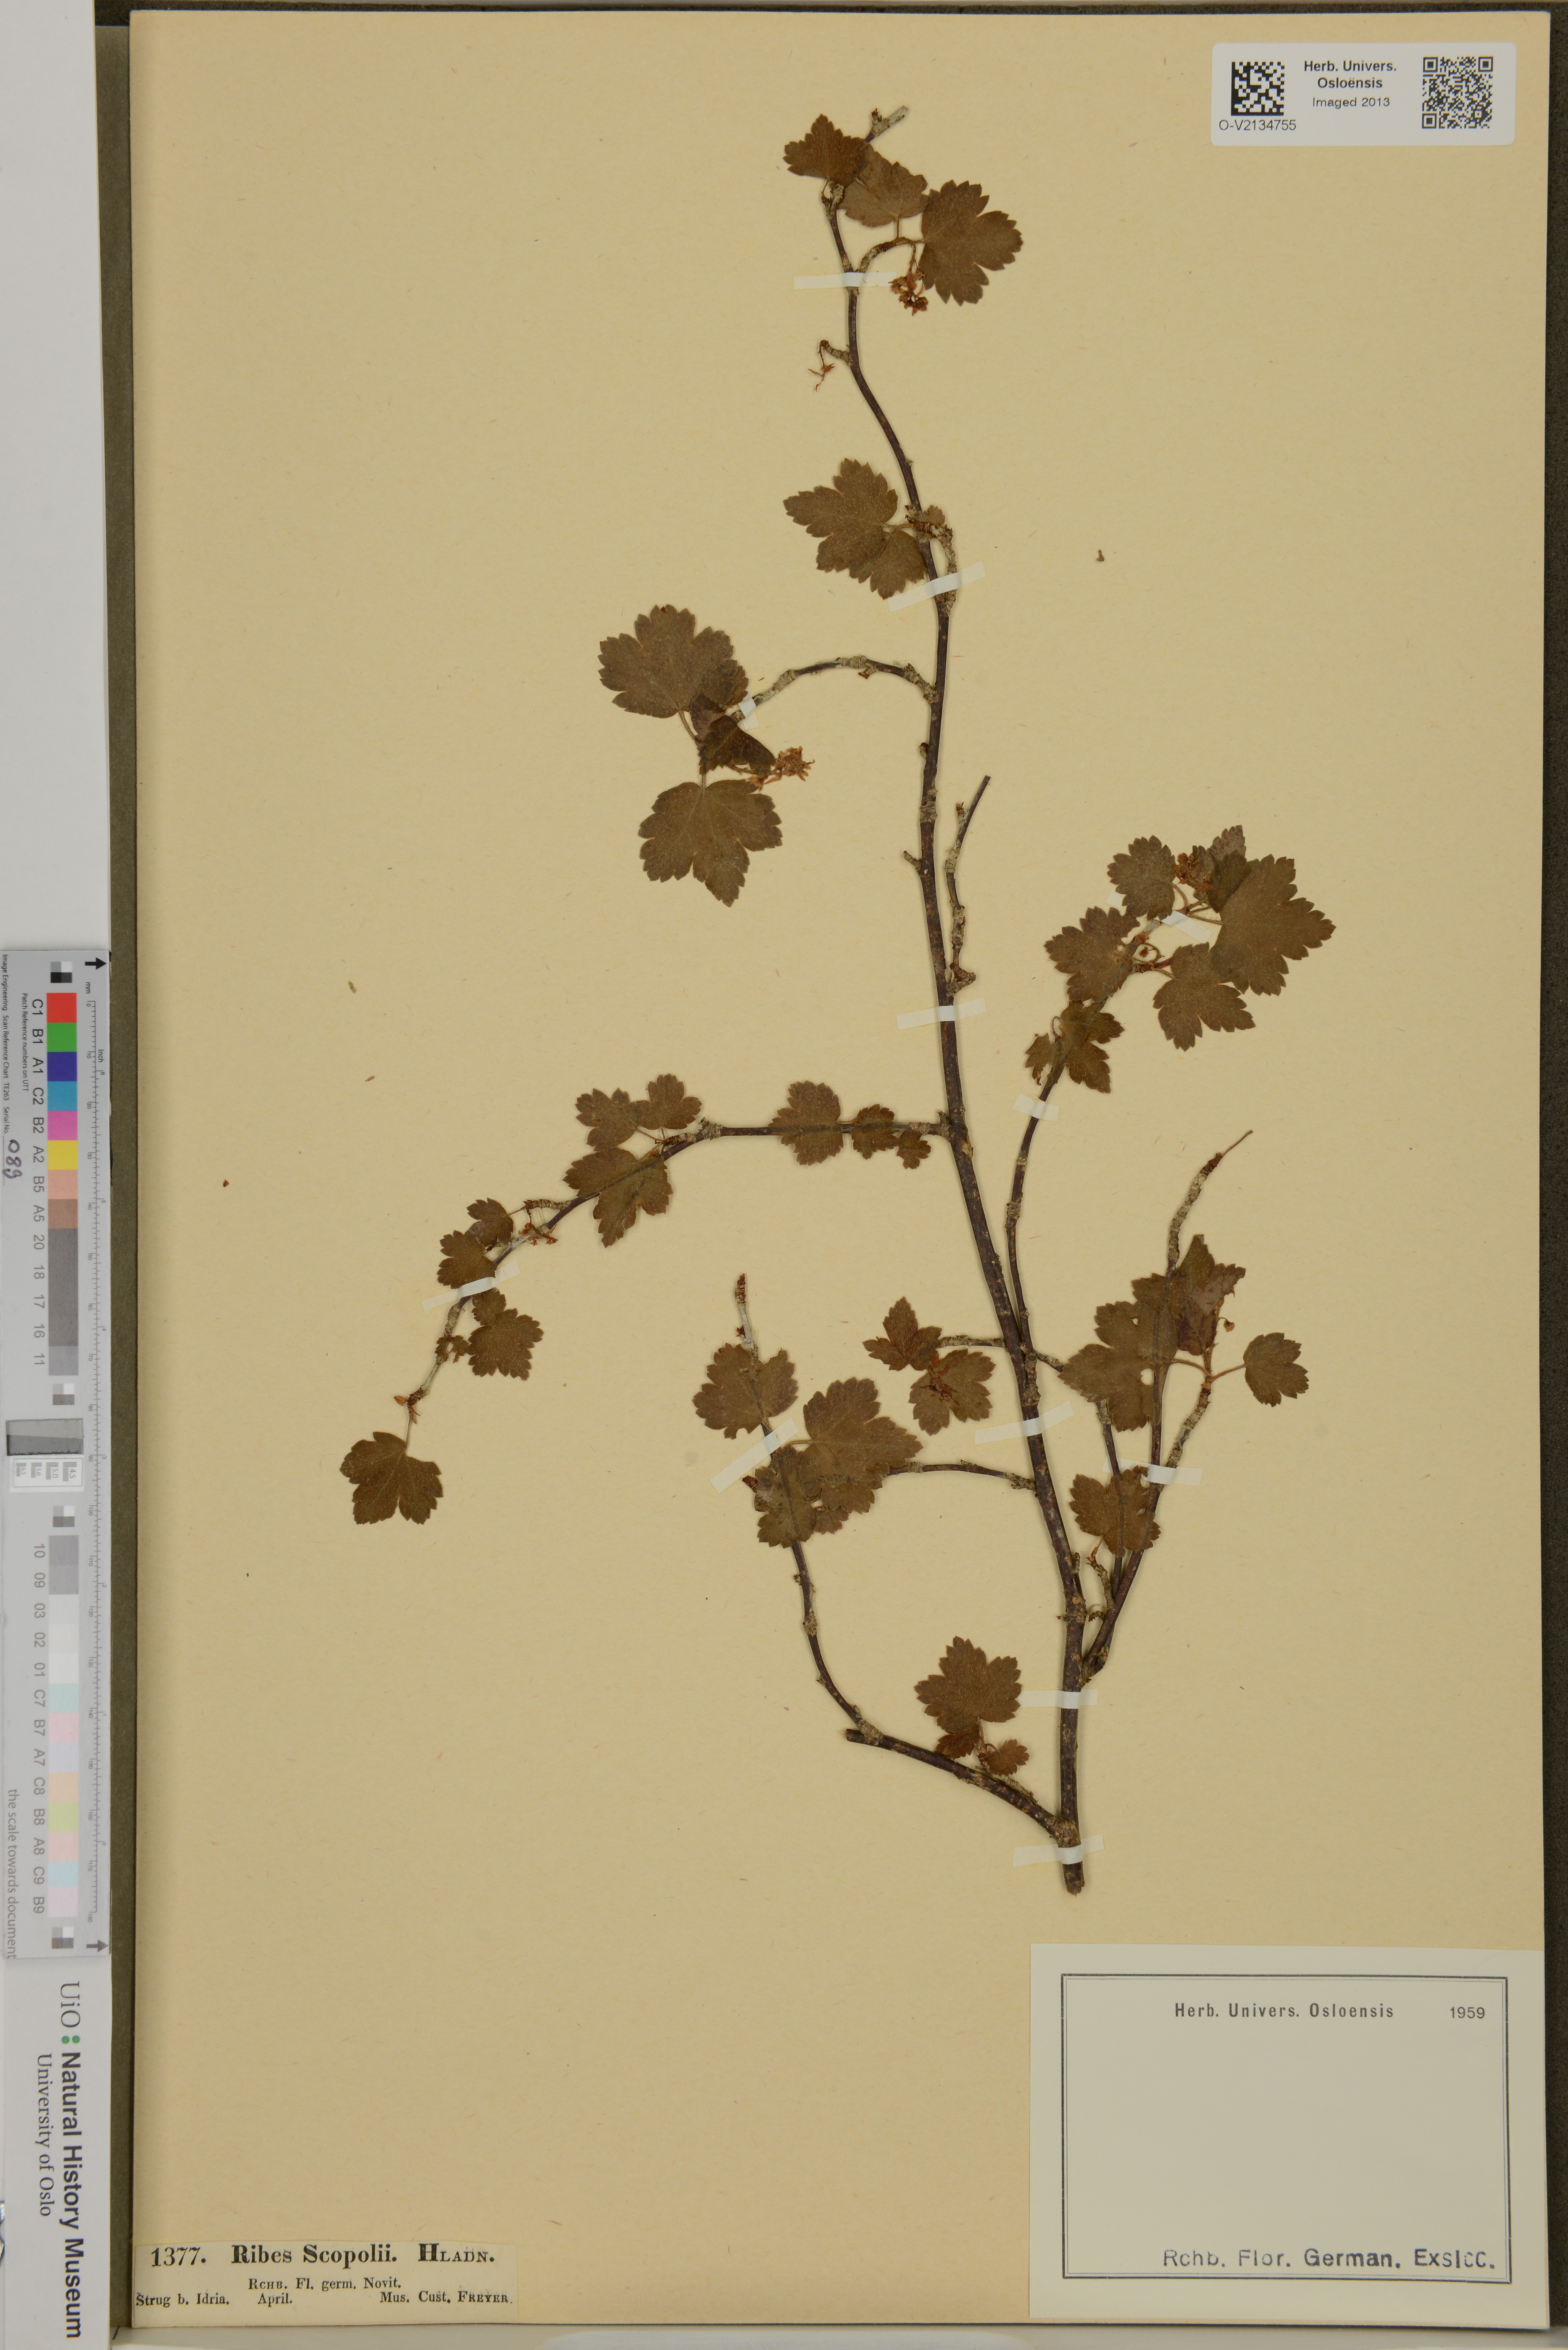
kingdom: Plantae
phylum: Tracheophyta
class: Magnoliopsida
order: Saxifragales
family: Grossulariaceae
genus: Ribes
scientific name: Ribes alpinum
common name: Alpine currant
